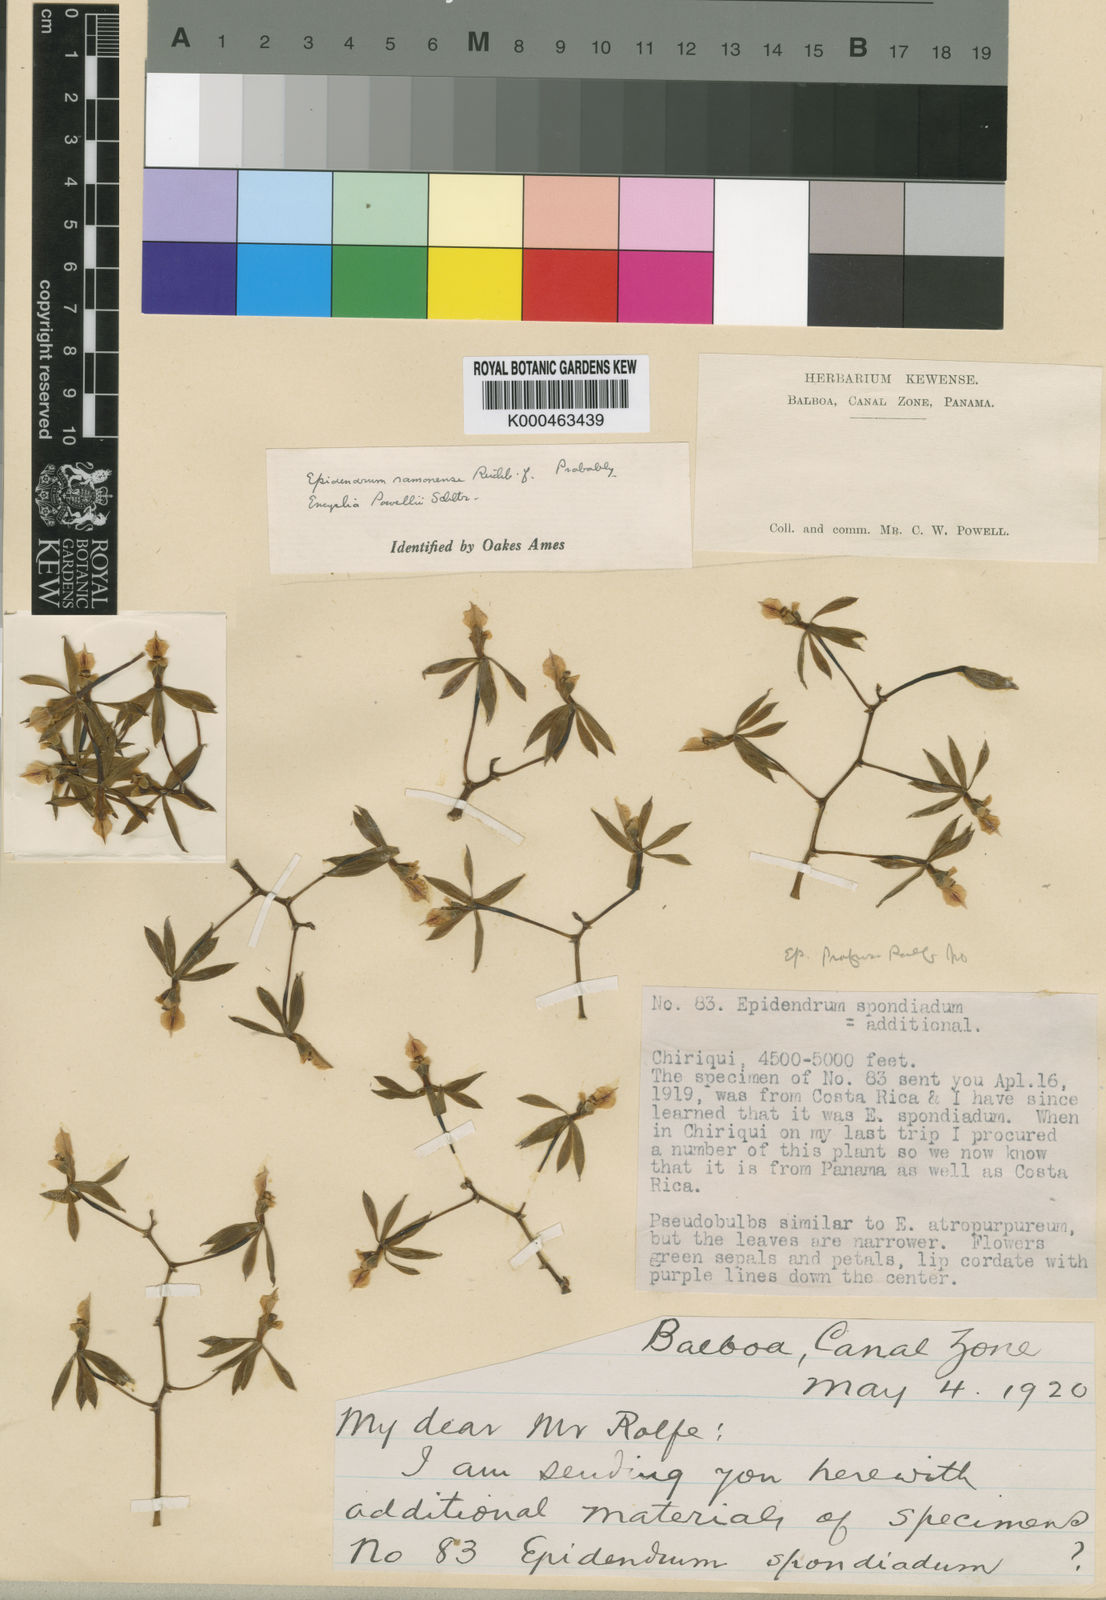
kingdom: Plantae
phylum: Tracheophyta
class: Liliopsida
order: Asparagales
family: Orchidaceae
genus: Encyclia
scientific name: Encyclia ceratistes
